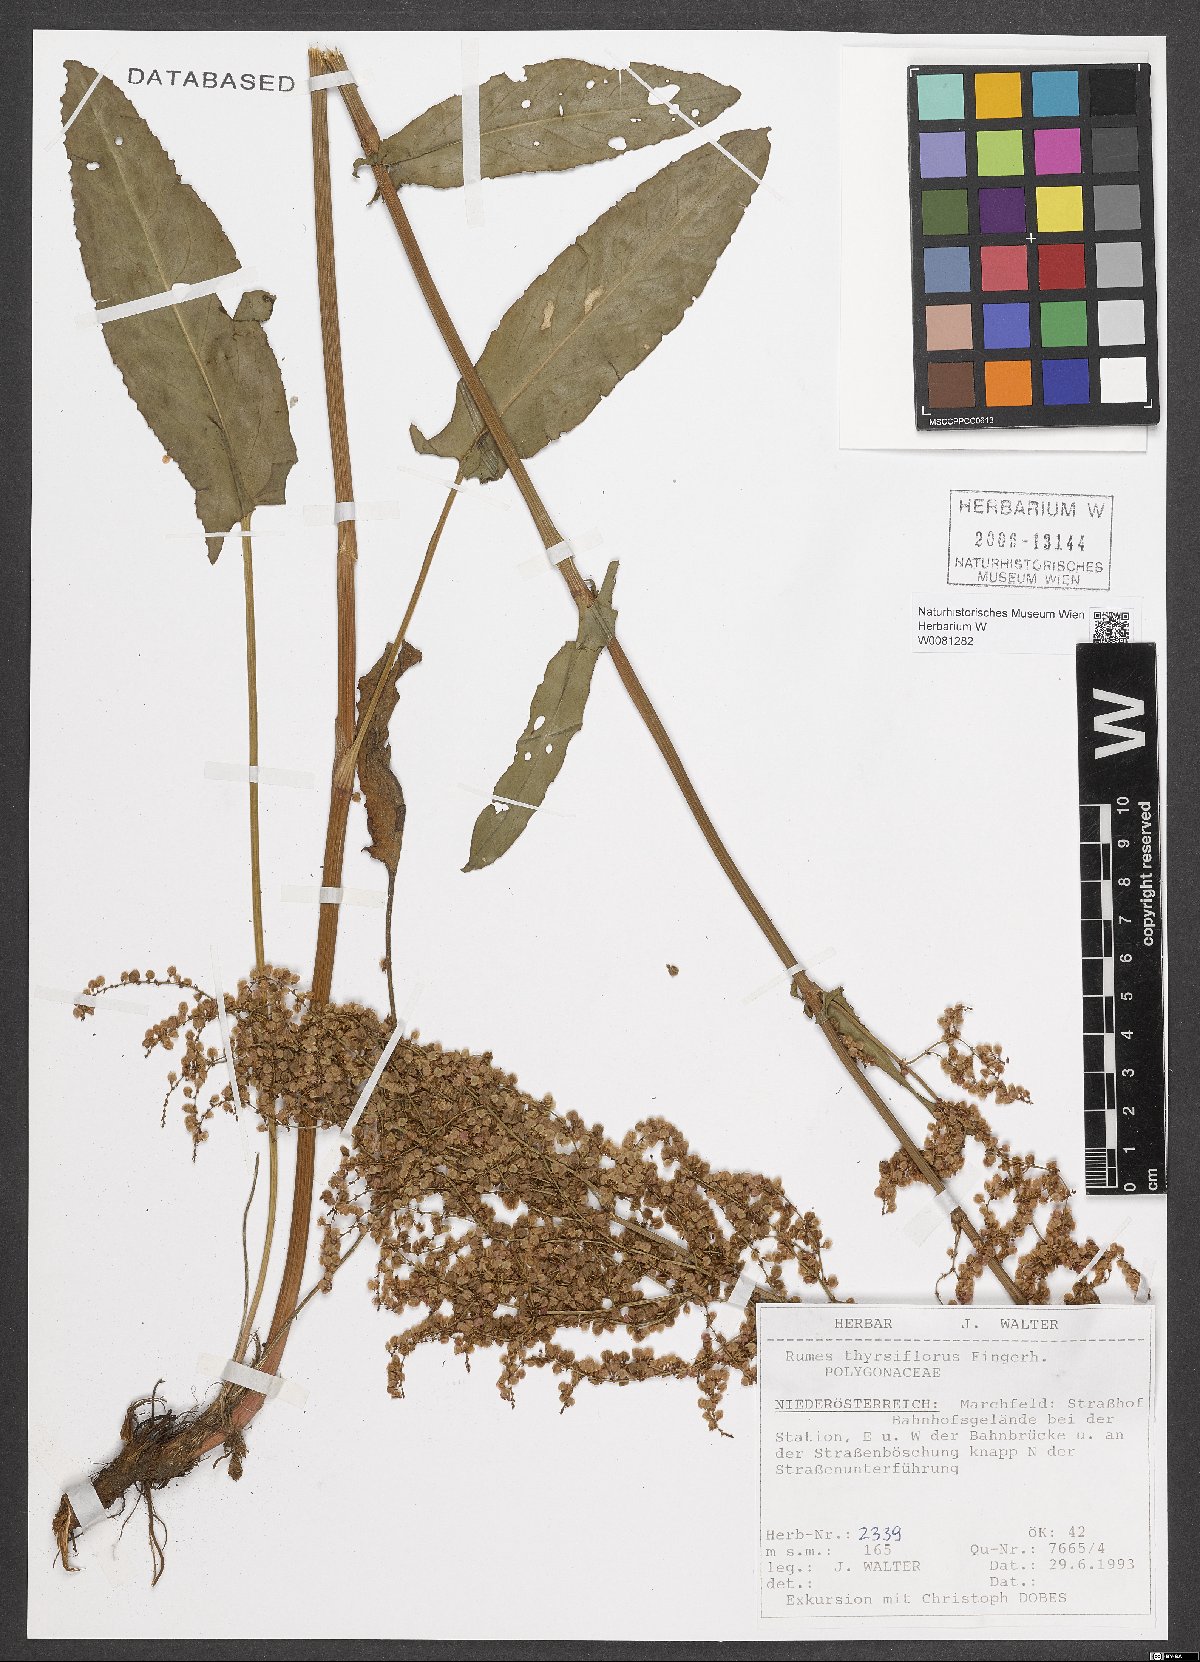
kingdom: Plantae
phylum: Tracheophyta
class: Magnoliopsida
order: Caryophyllales
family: Polygonaceae
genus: Rumex
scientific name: Rumex thyrsiflorus
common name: Garden sorrel
